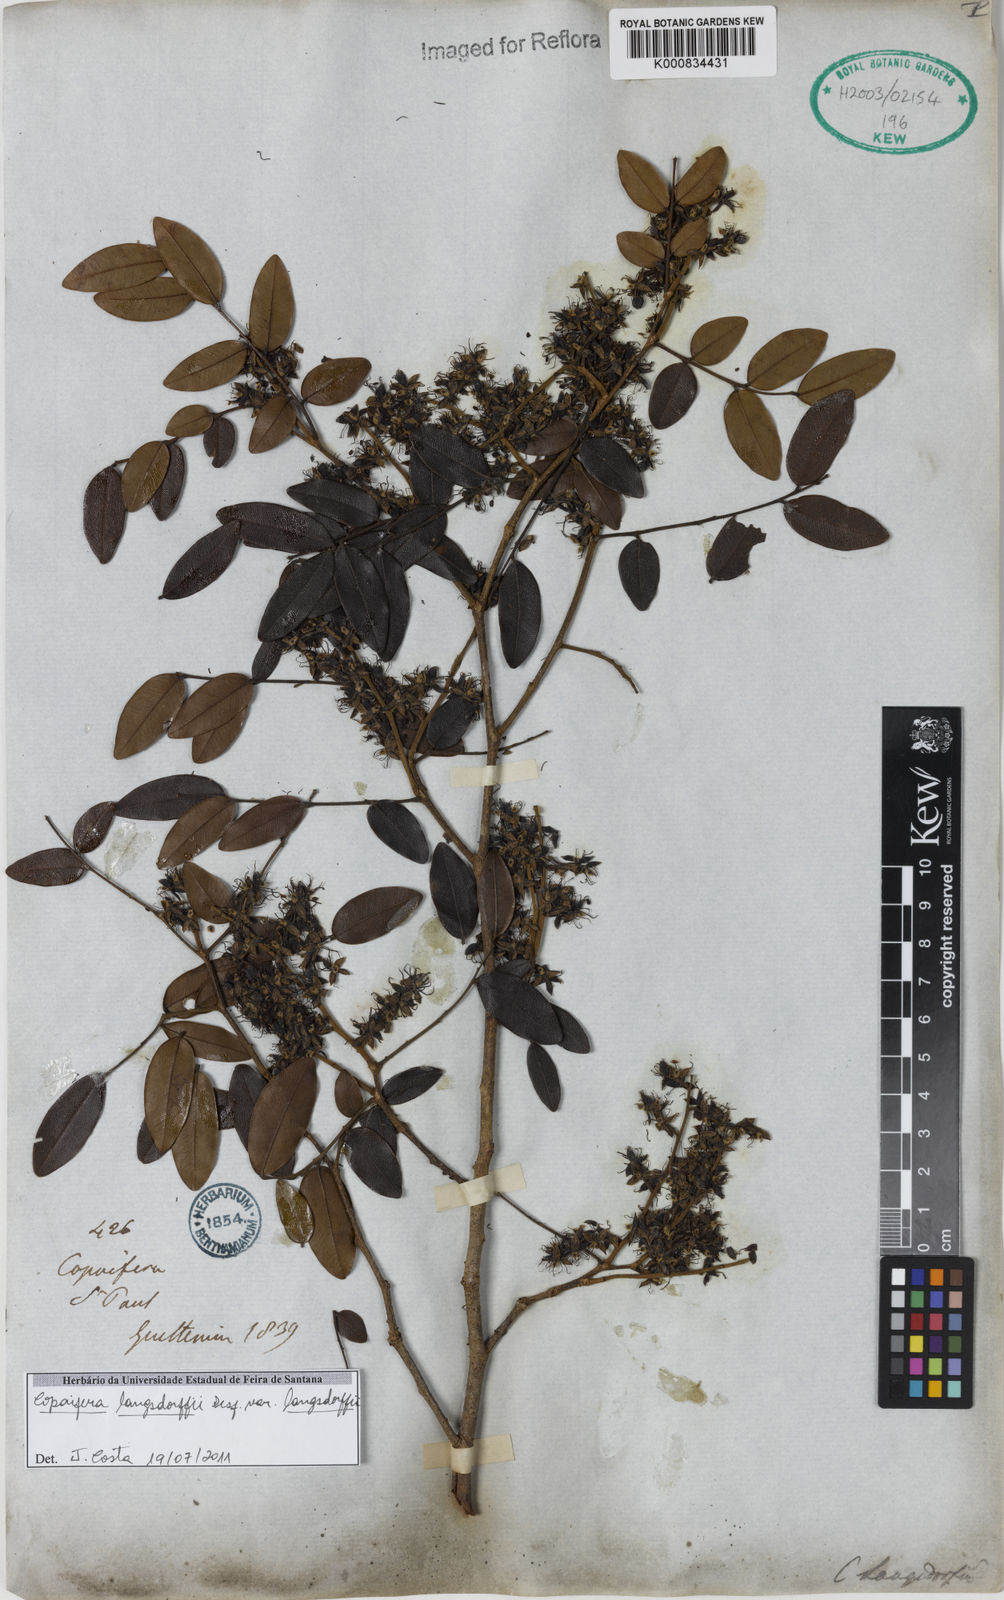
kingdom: Plantae
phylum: Tracheophyta
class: Magnoliopsida
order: Fabales
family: Fabaceae
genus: Copaifera
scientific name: Copaifera langsdorffii
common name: Brazilian diesel tree
